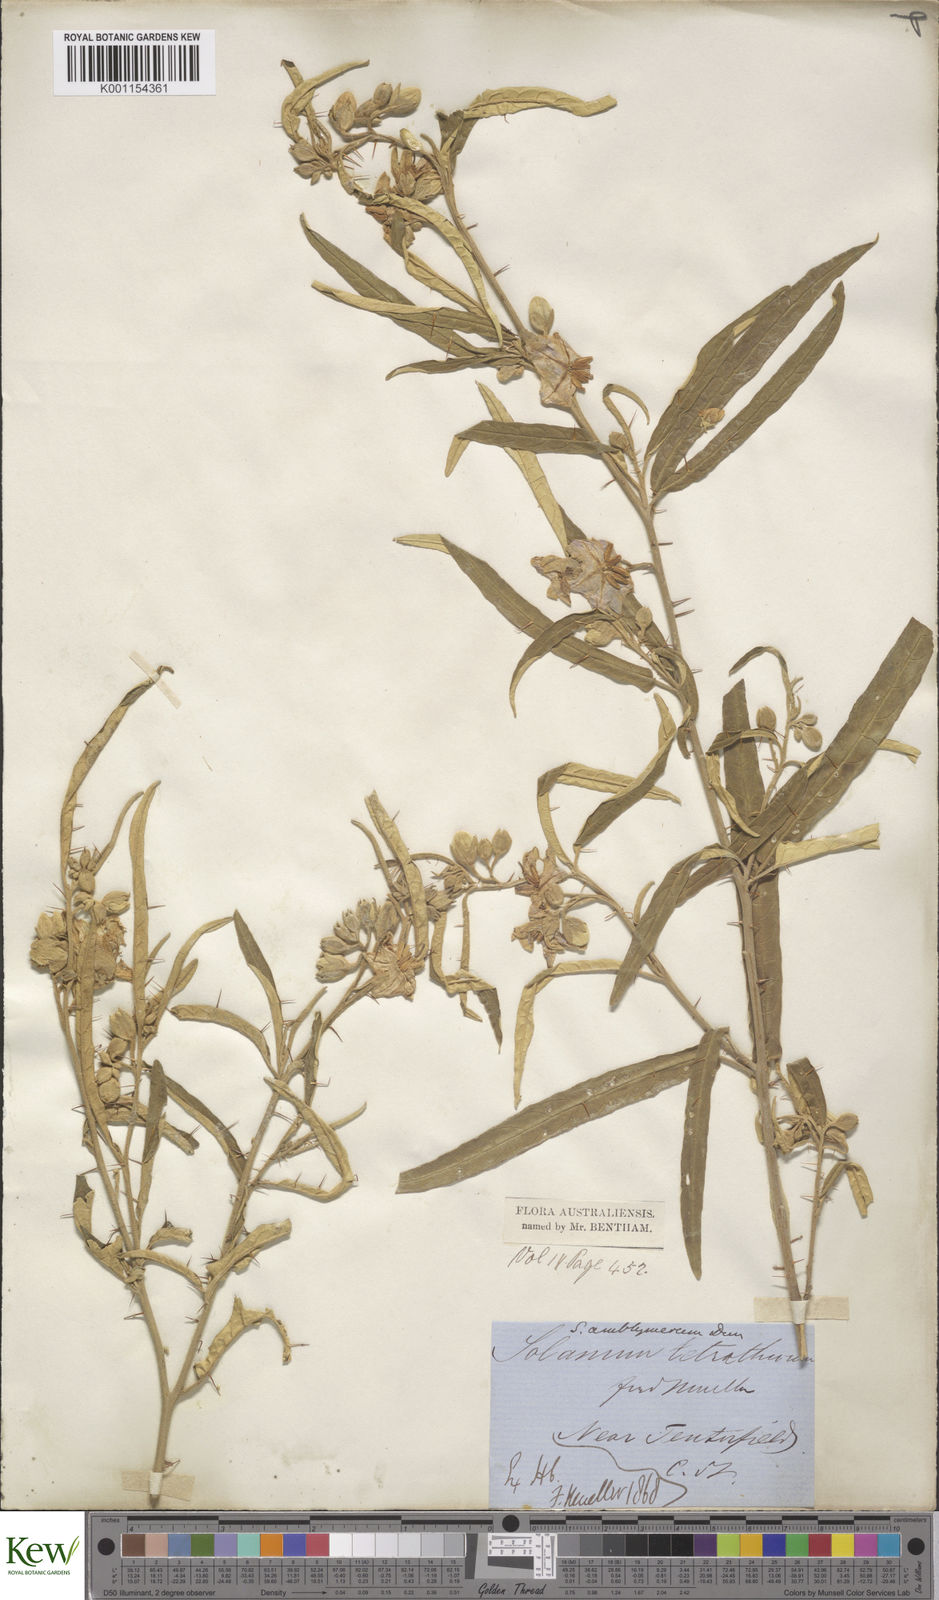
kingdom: Plantae
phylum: Tracheophyta
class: Magnoliopsida
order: Solanales
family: Solanaceae
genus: Solanum
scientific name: Solanum elegans
